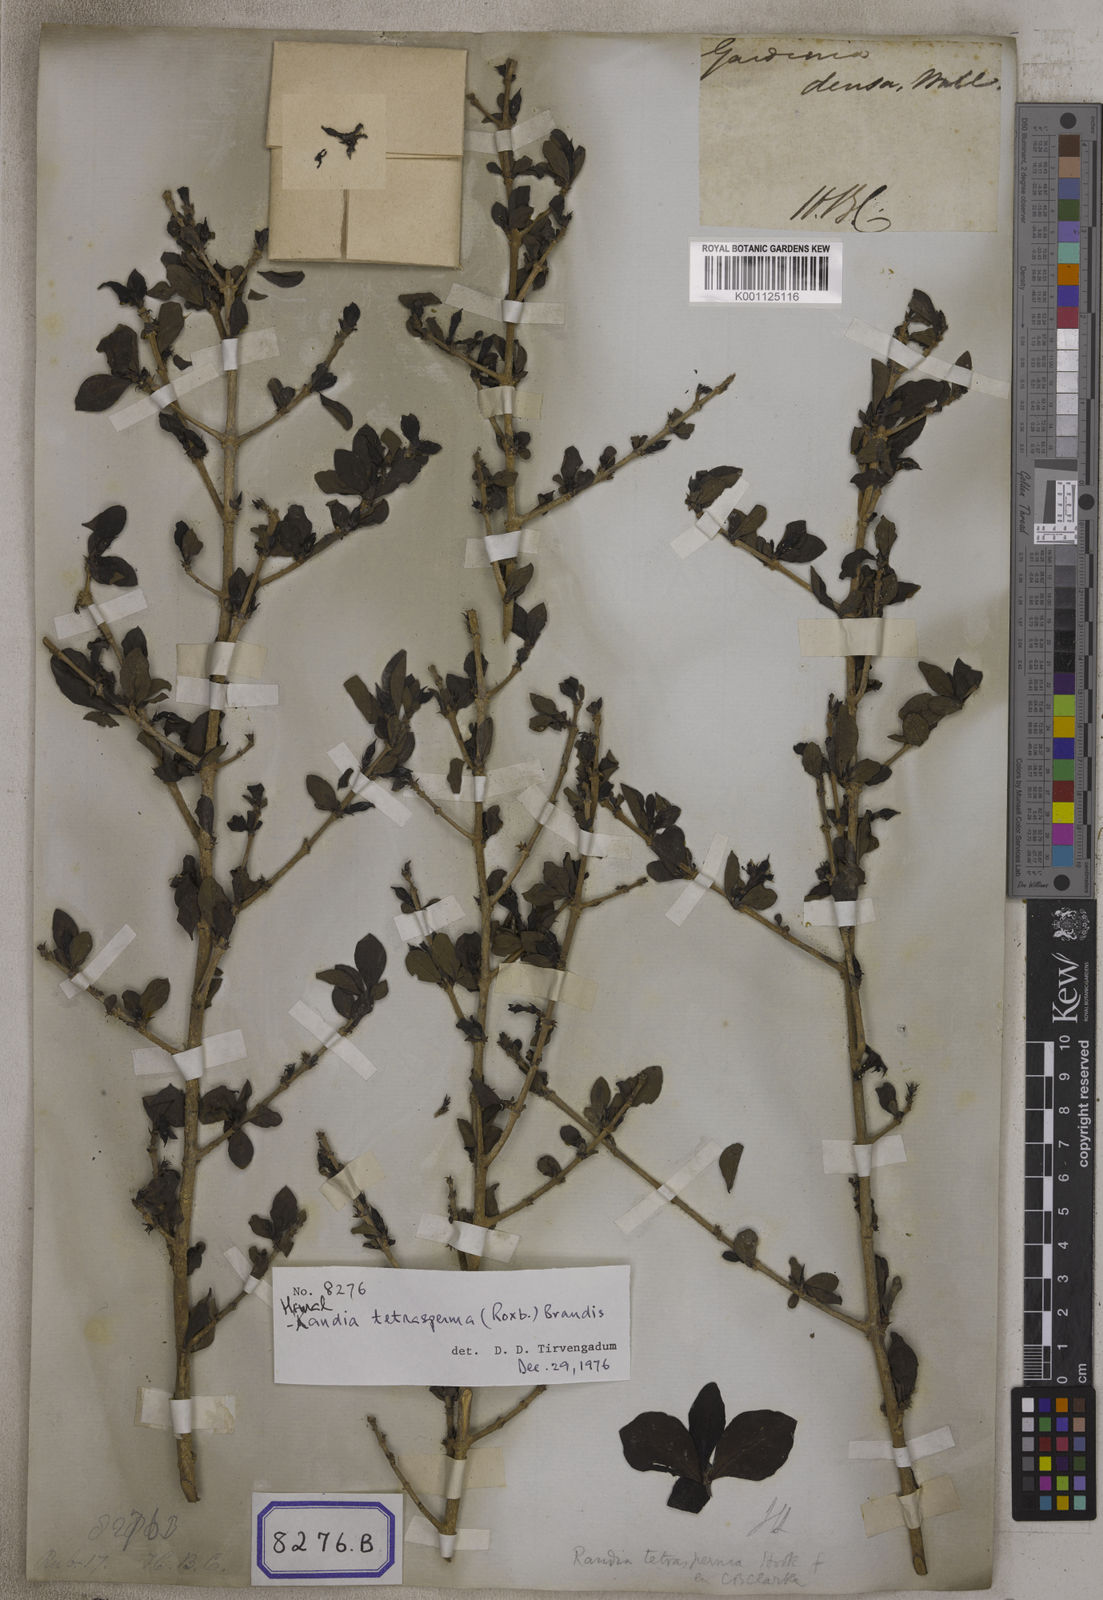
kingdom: Plantae
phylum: Tracheophyta
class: Magnoliopsida
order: Gentianales
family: Rubiaceae
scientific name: Rubiaceae
